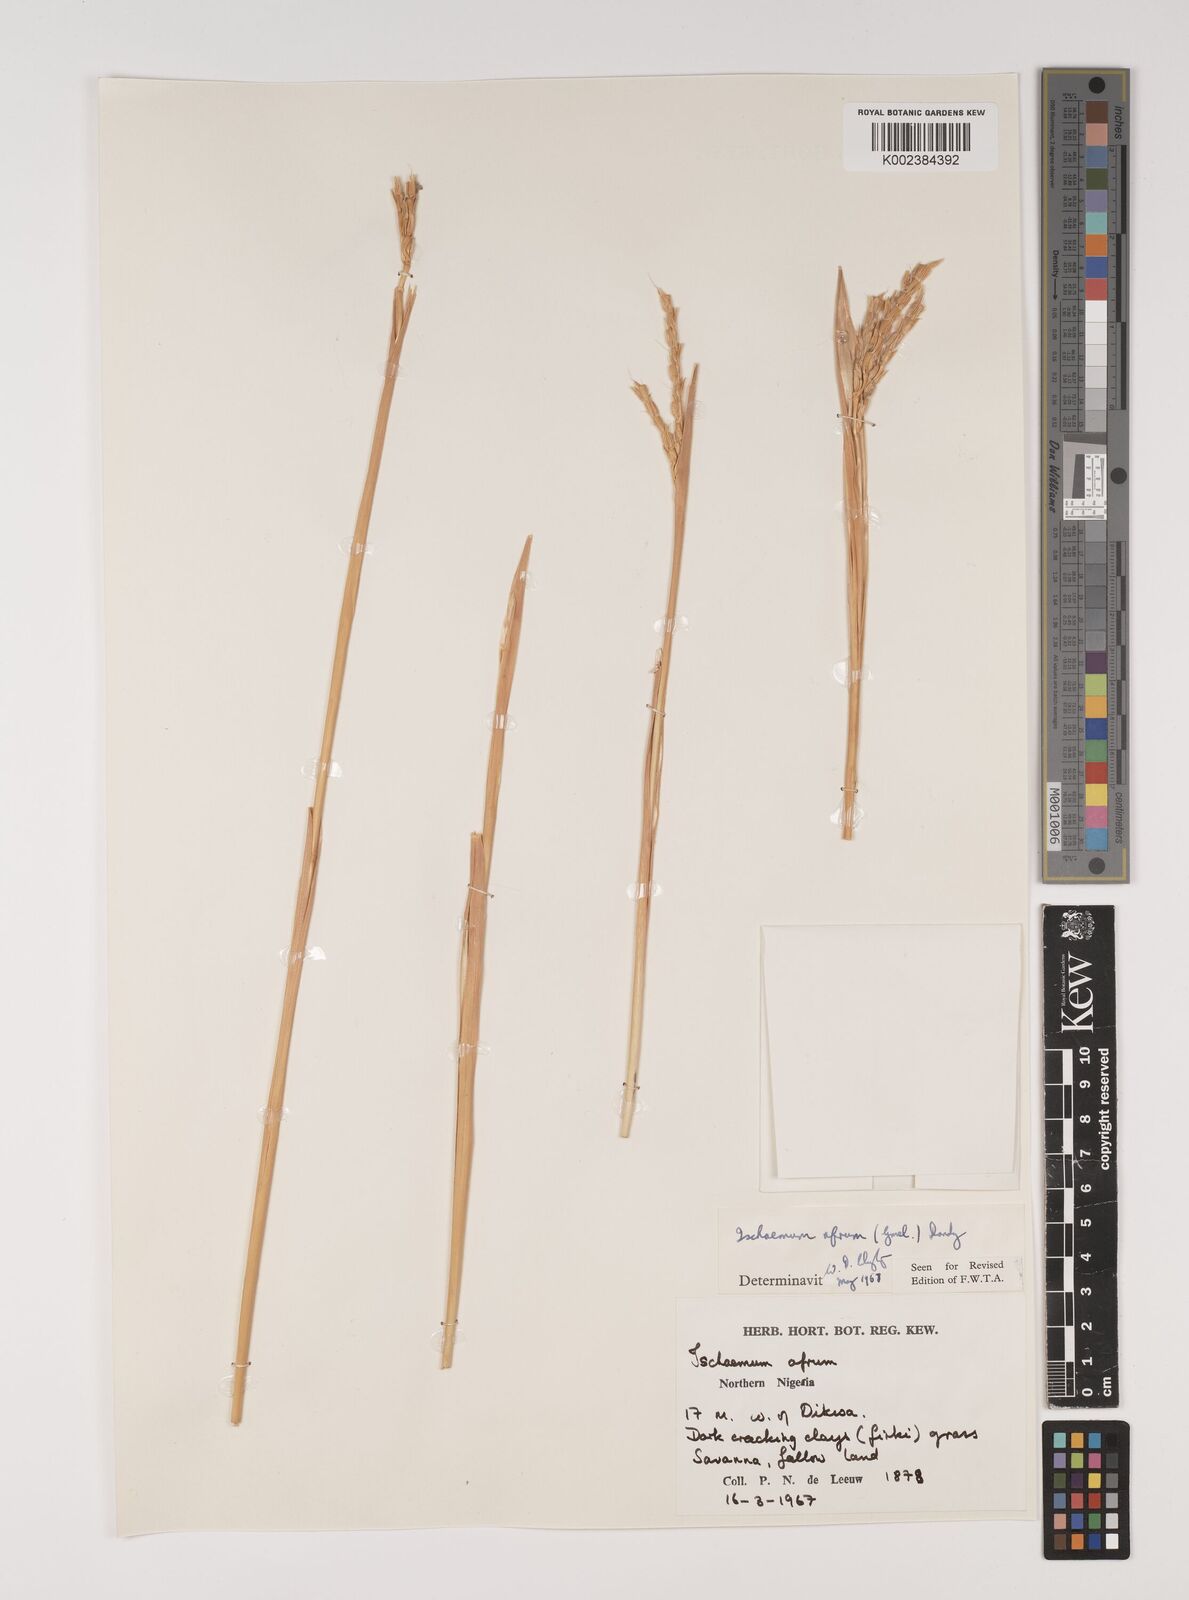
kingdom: Plantae
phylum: Tracheophyta
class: Liliopsida
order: Poales
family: Poaceae
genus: Ischaemum
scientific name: Ischaemum afrum
